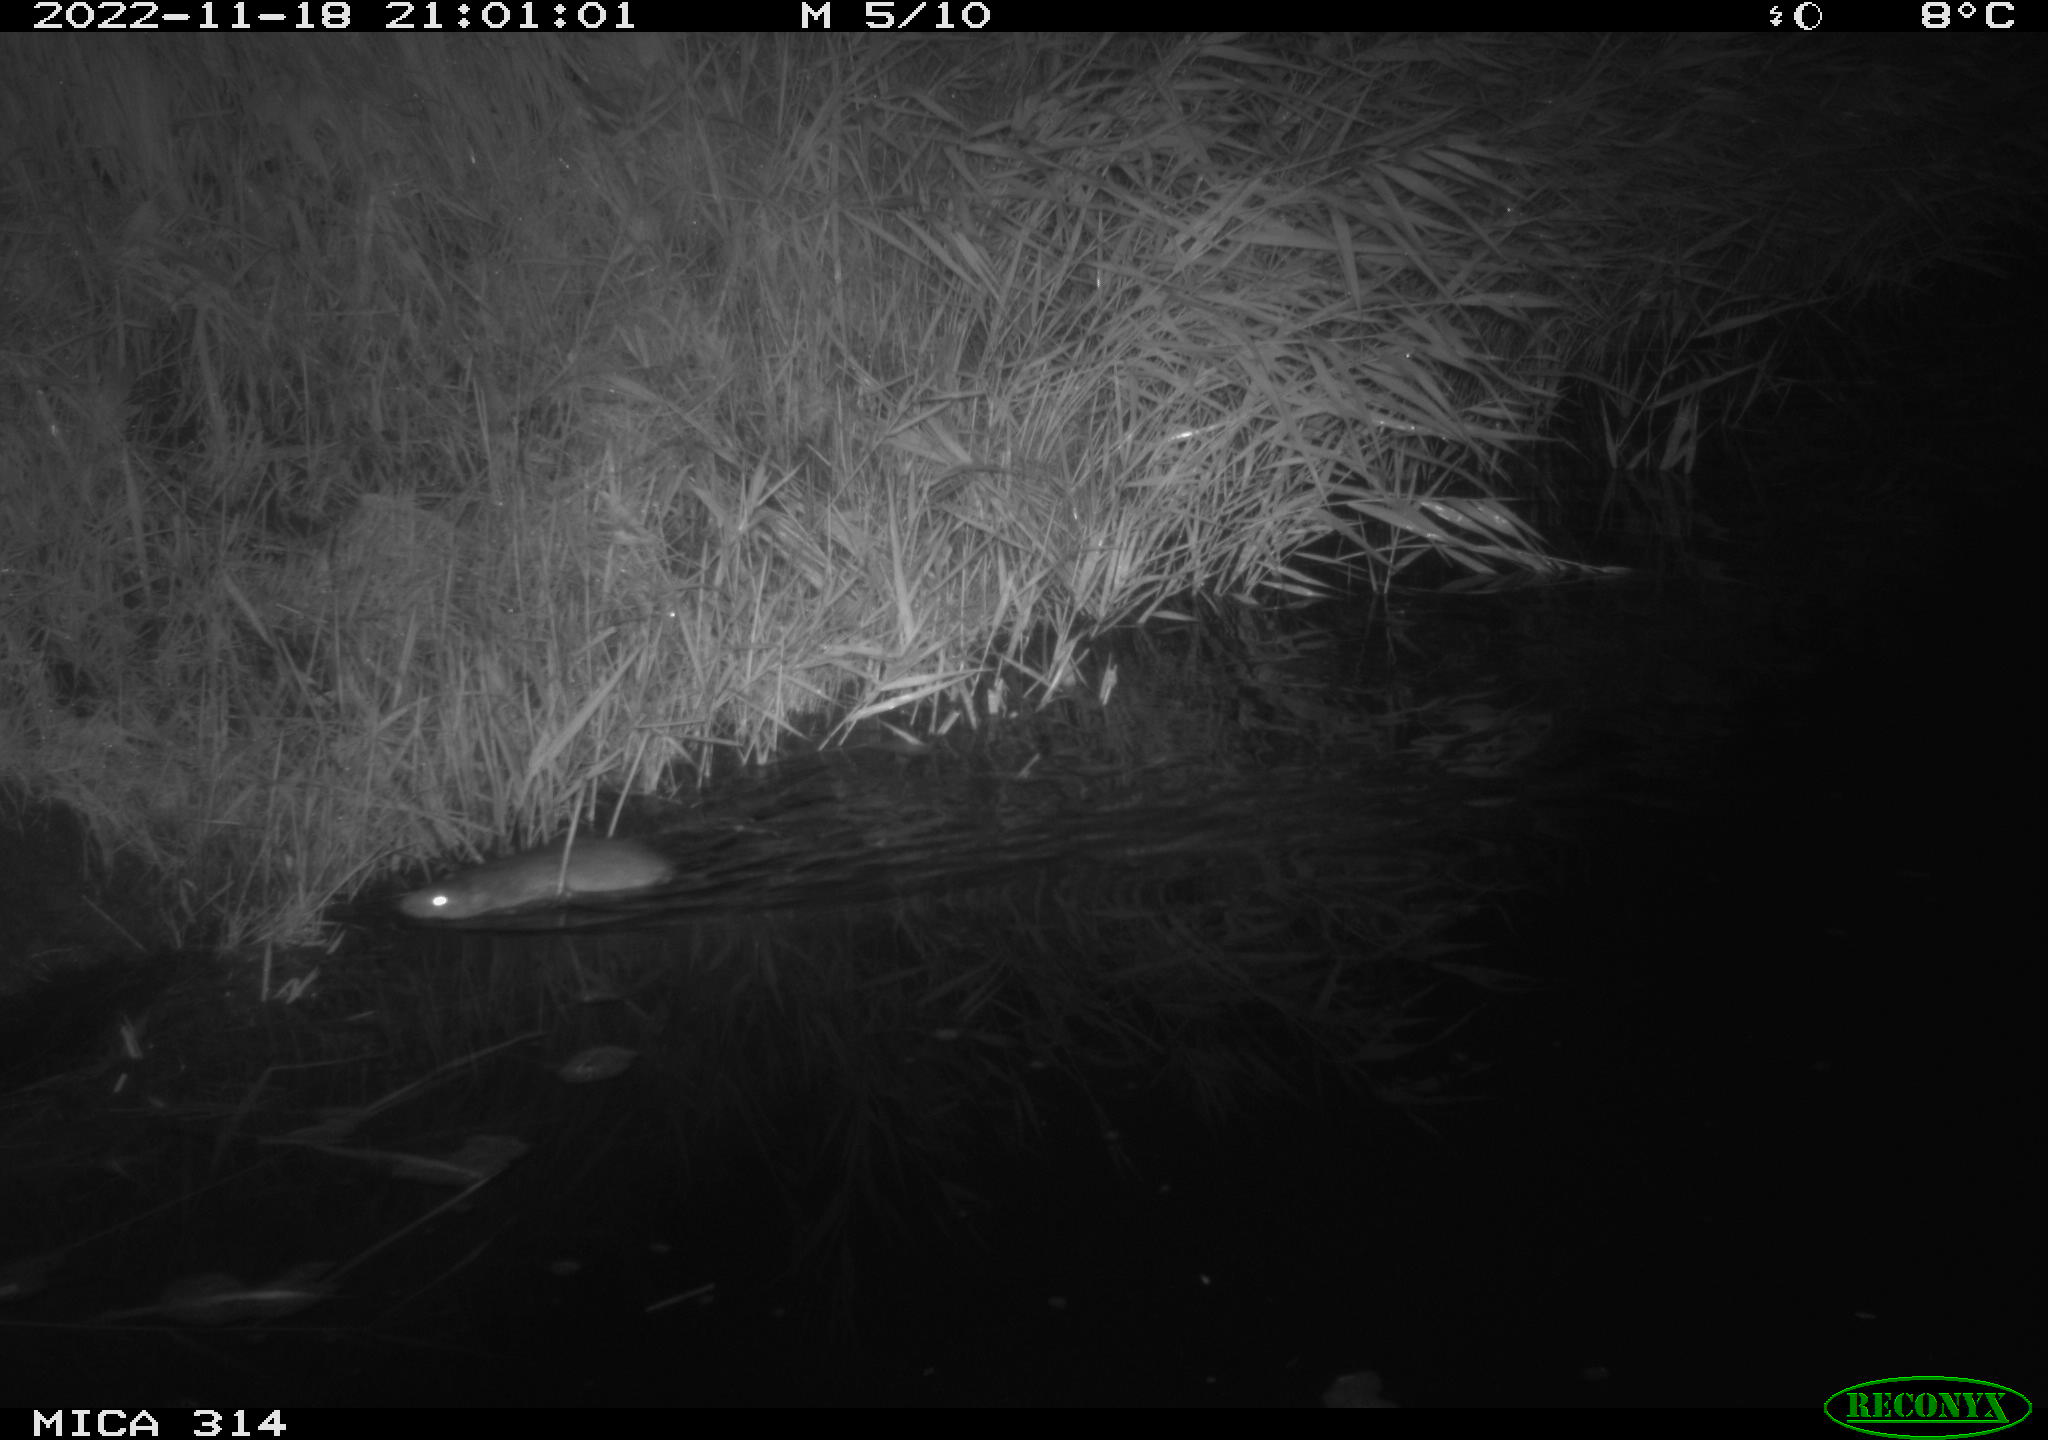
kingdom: Animalia
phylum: Chordata
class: Mammalia
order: Rodentia
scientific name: Rodentia
